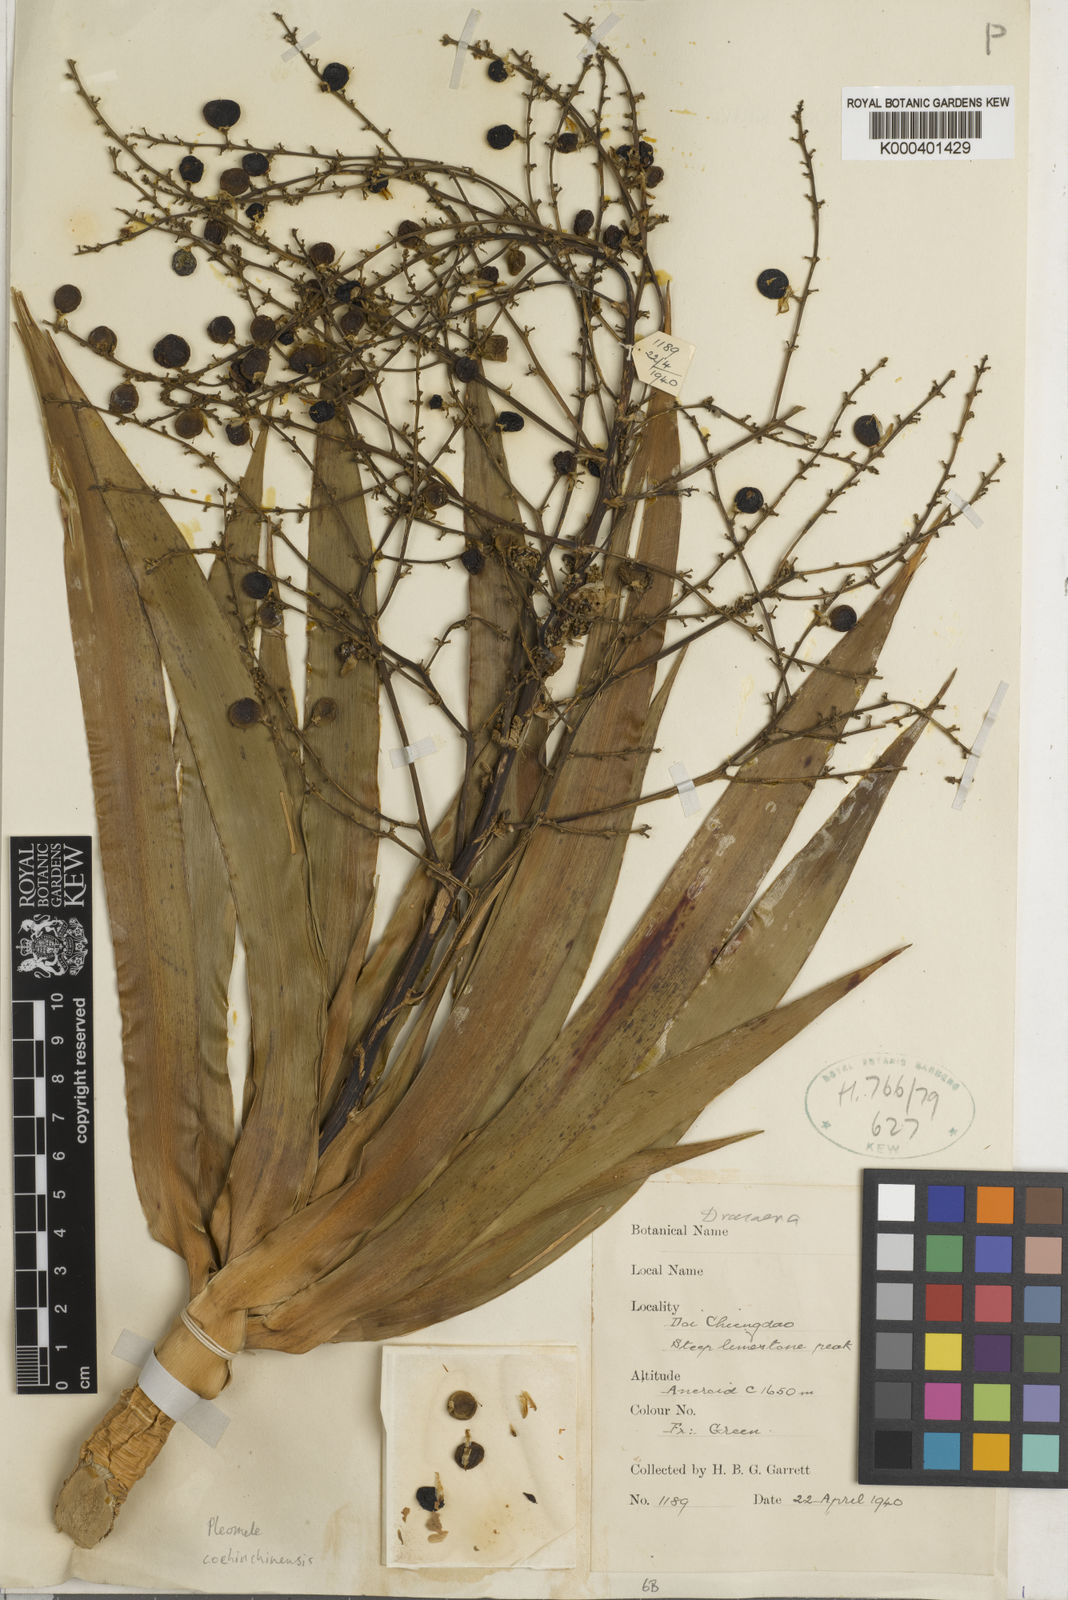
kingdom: Plantae
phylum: Tracheophyta
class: Liliopsida
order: Asparagales
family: Asparagaceae
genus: Dracaena
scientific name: Dracaena cochinchinensis
